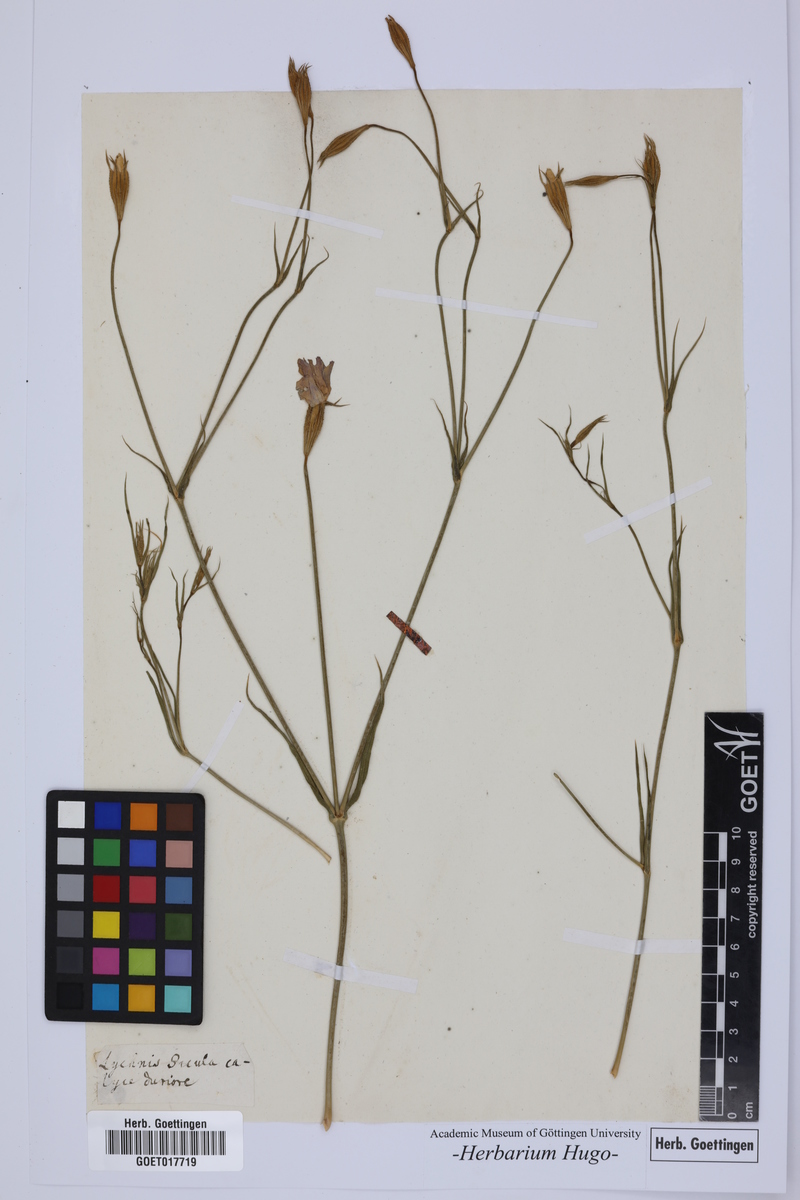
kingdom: Plantae
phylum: Tracheophyta
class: Magnoliopsida
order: Caryophyllales
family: Caryophyllaceae
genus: Silene
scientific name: Silene
